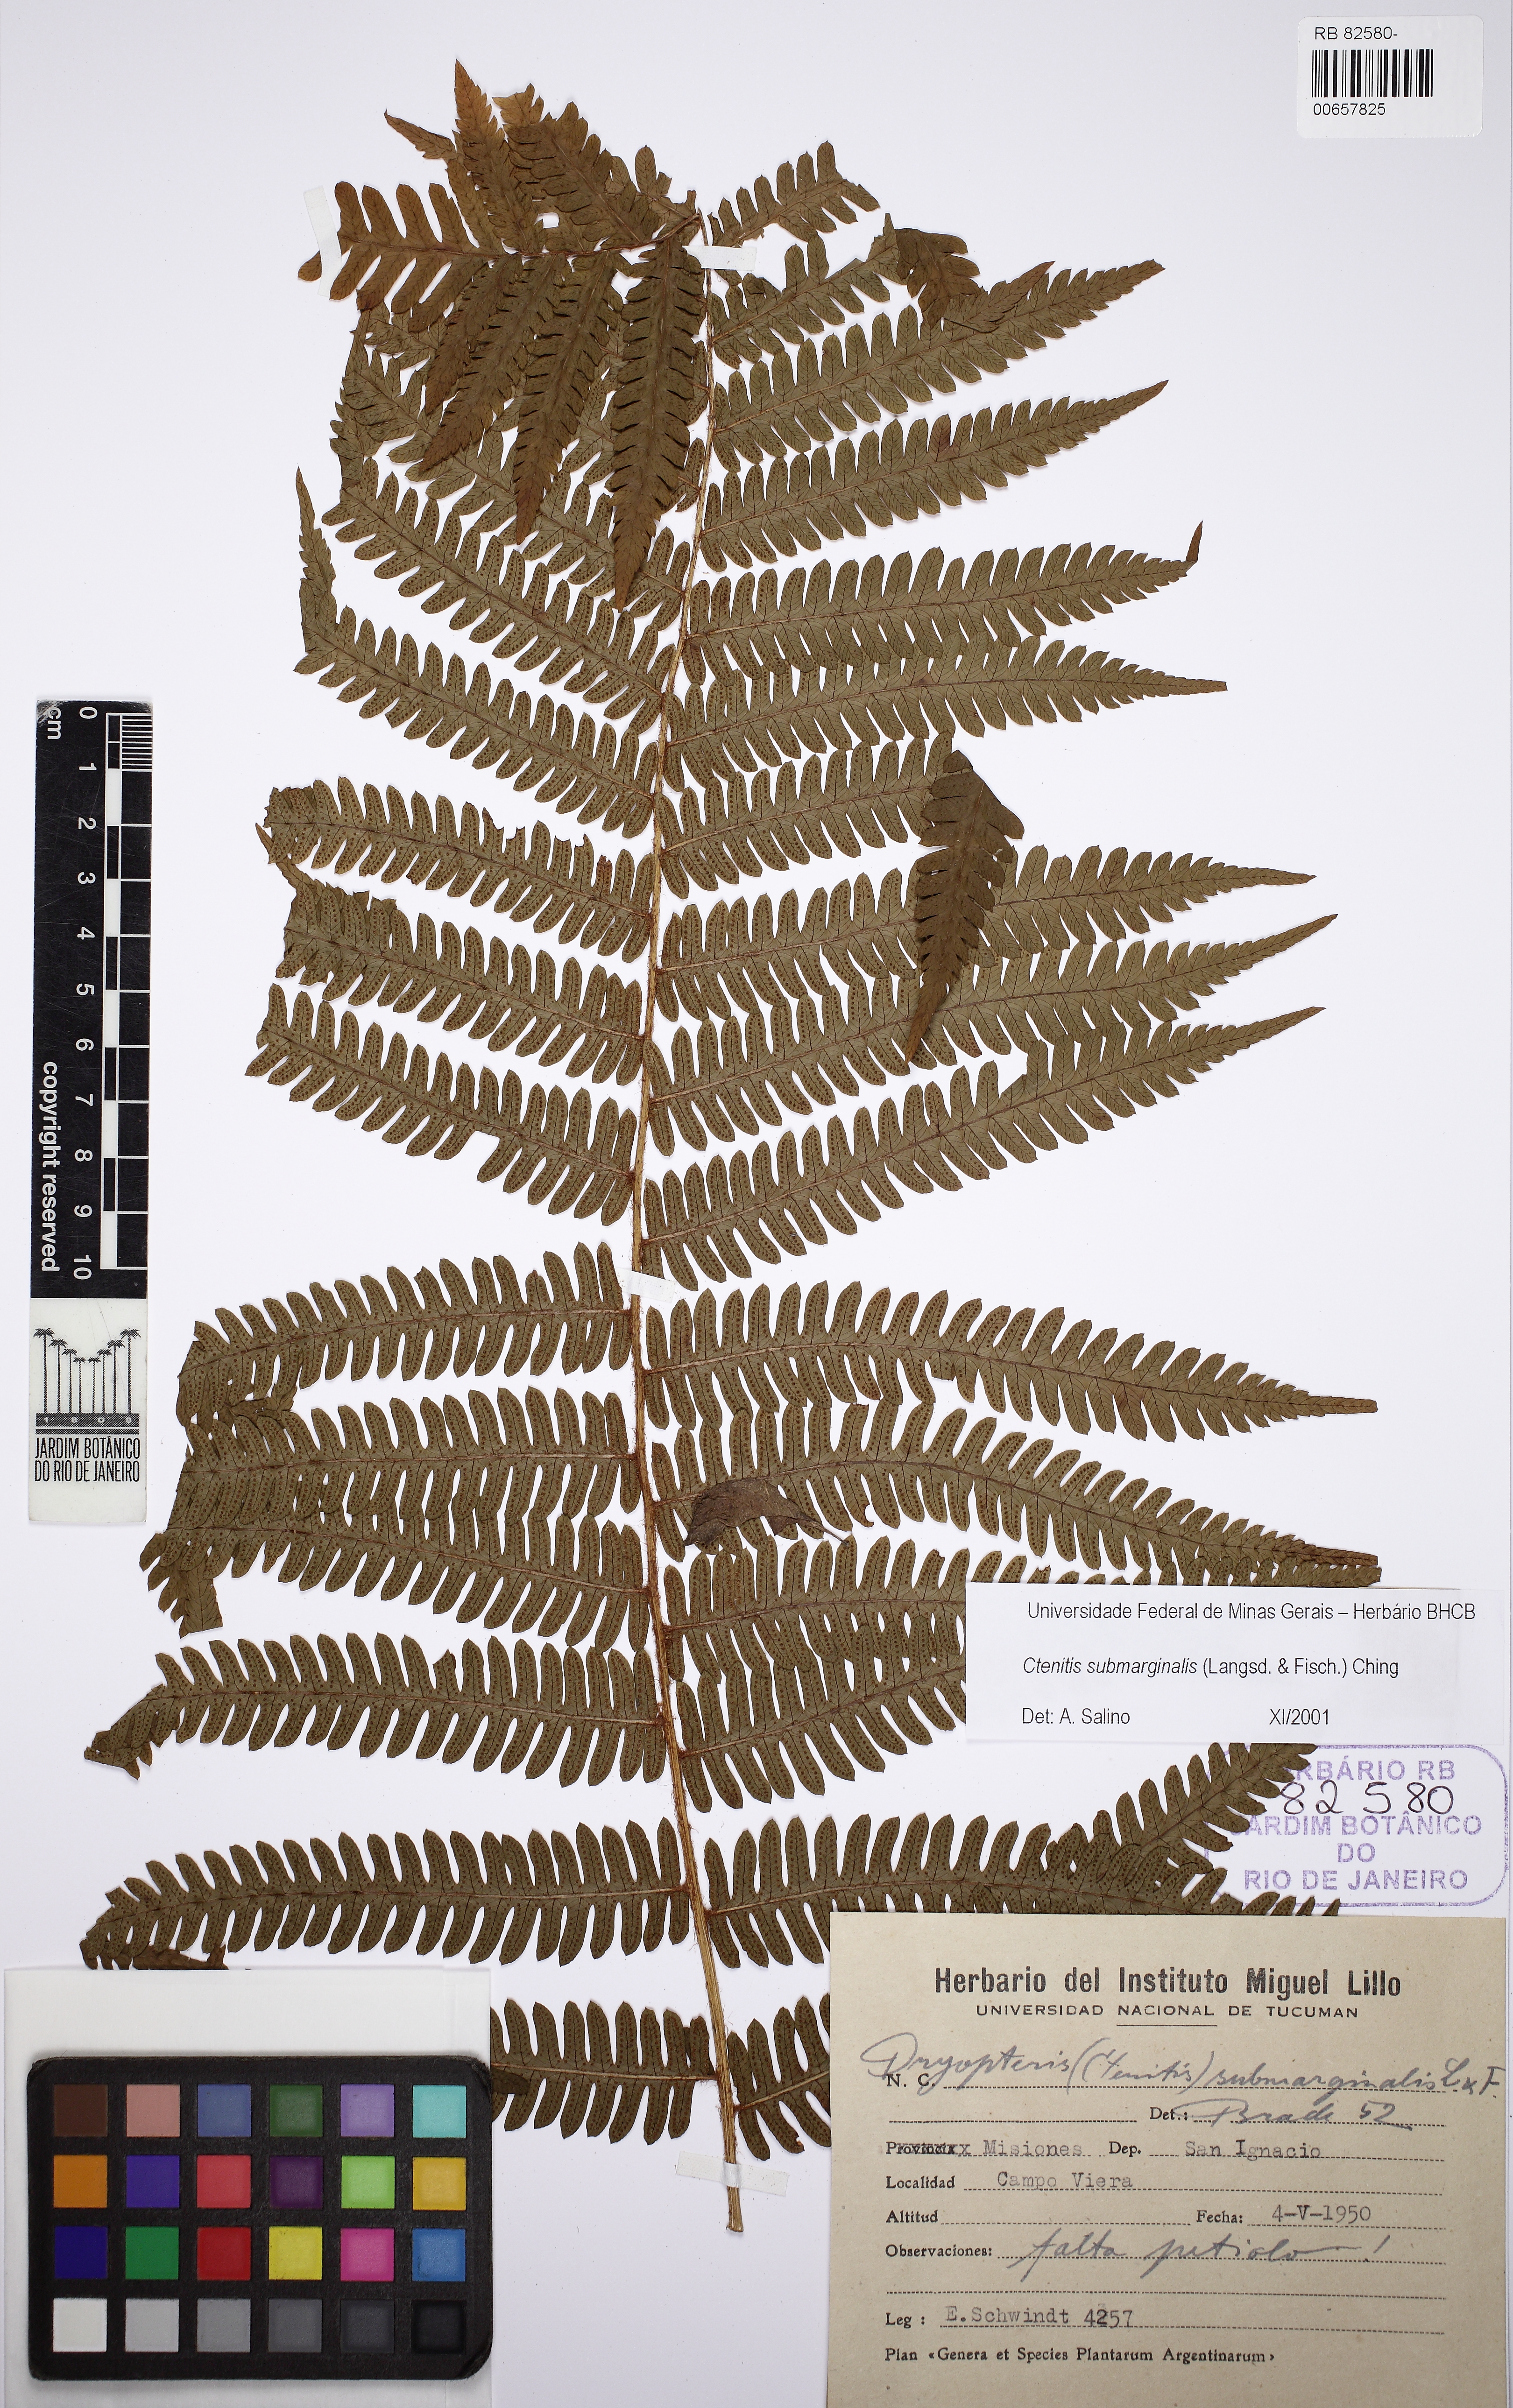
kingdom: Plantae
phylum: Tracheophyta
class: Polypodiopsida
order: Polypodiales
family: Dryopteridaceae
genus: Ctenitis
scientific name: Ctenitis submarginalis
